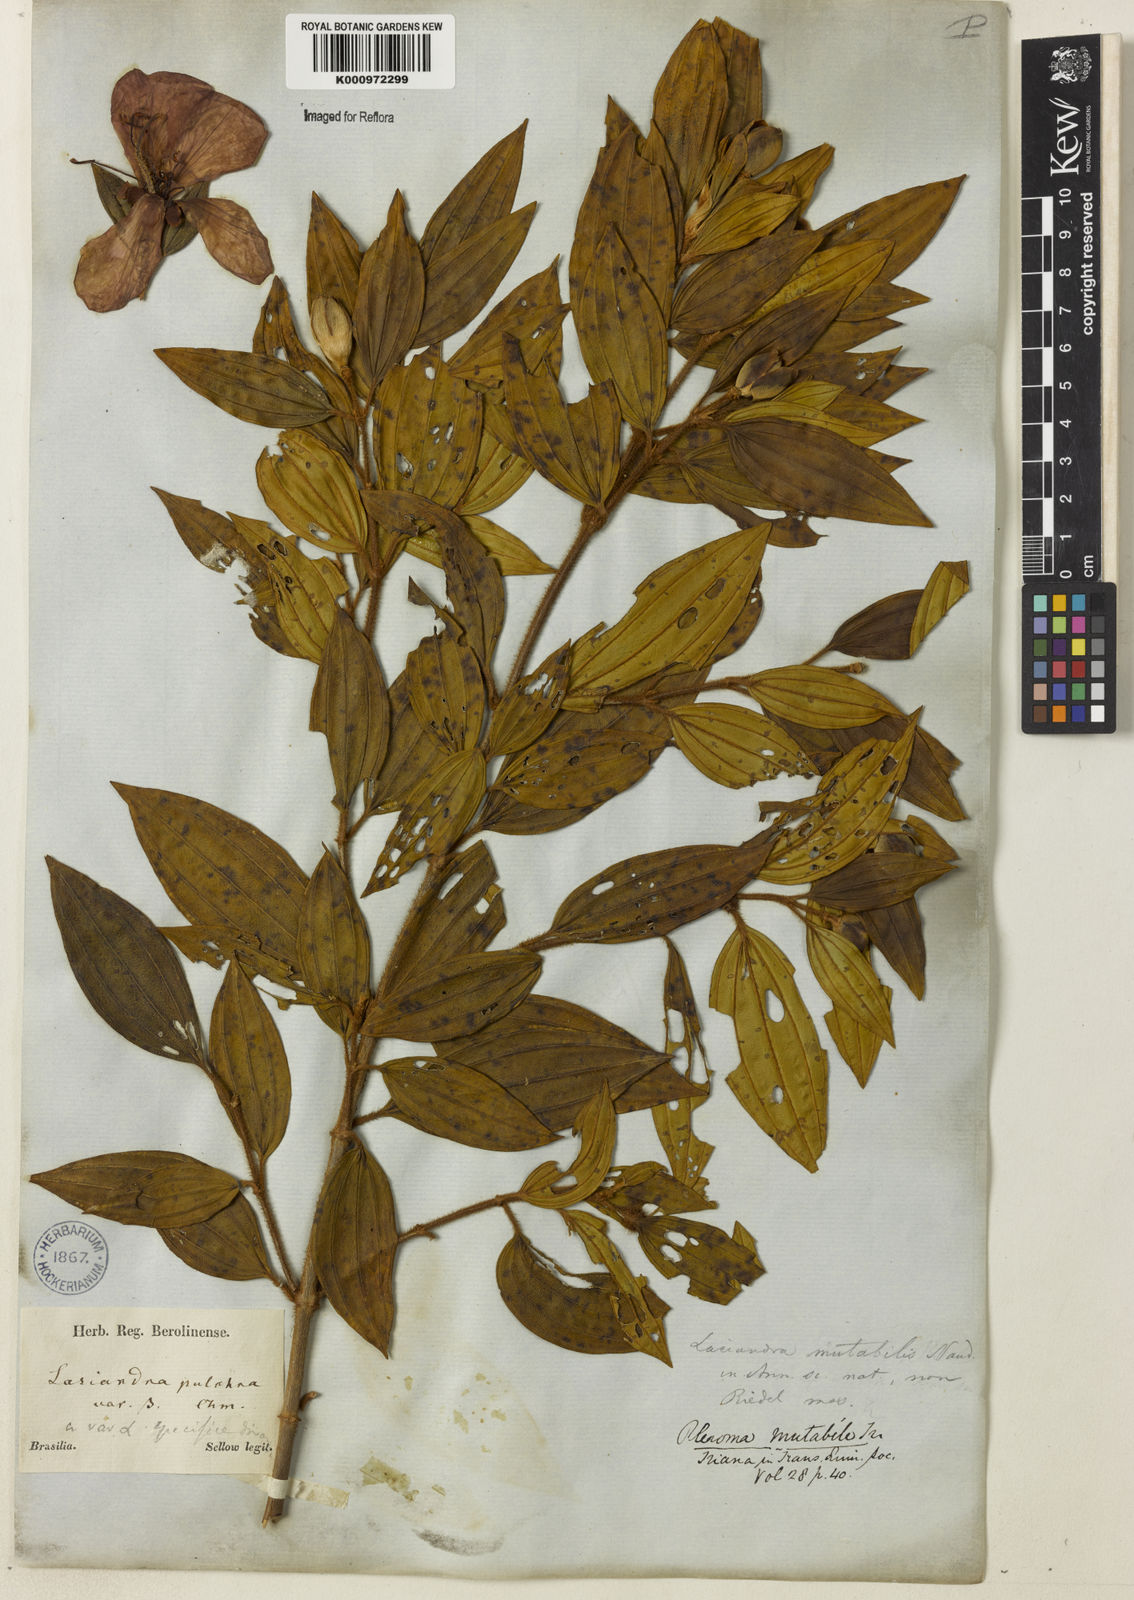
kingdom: Plantae
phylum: Tracheophyta
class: Magnoliopsida
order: Myrtales
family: Melastomataceae
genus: Pleroma
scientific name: Pleroma mutabile
